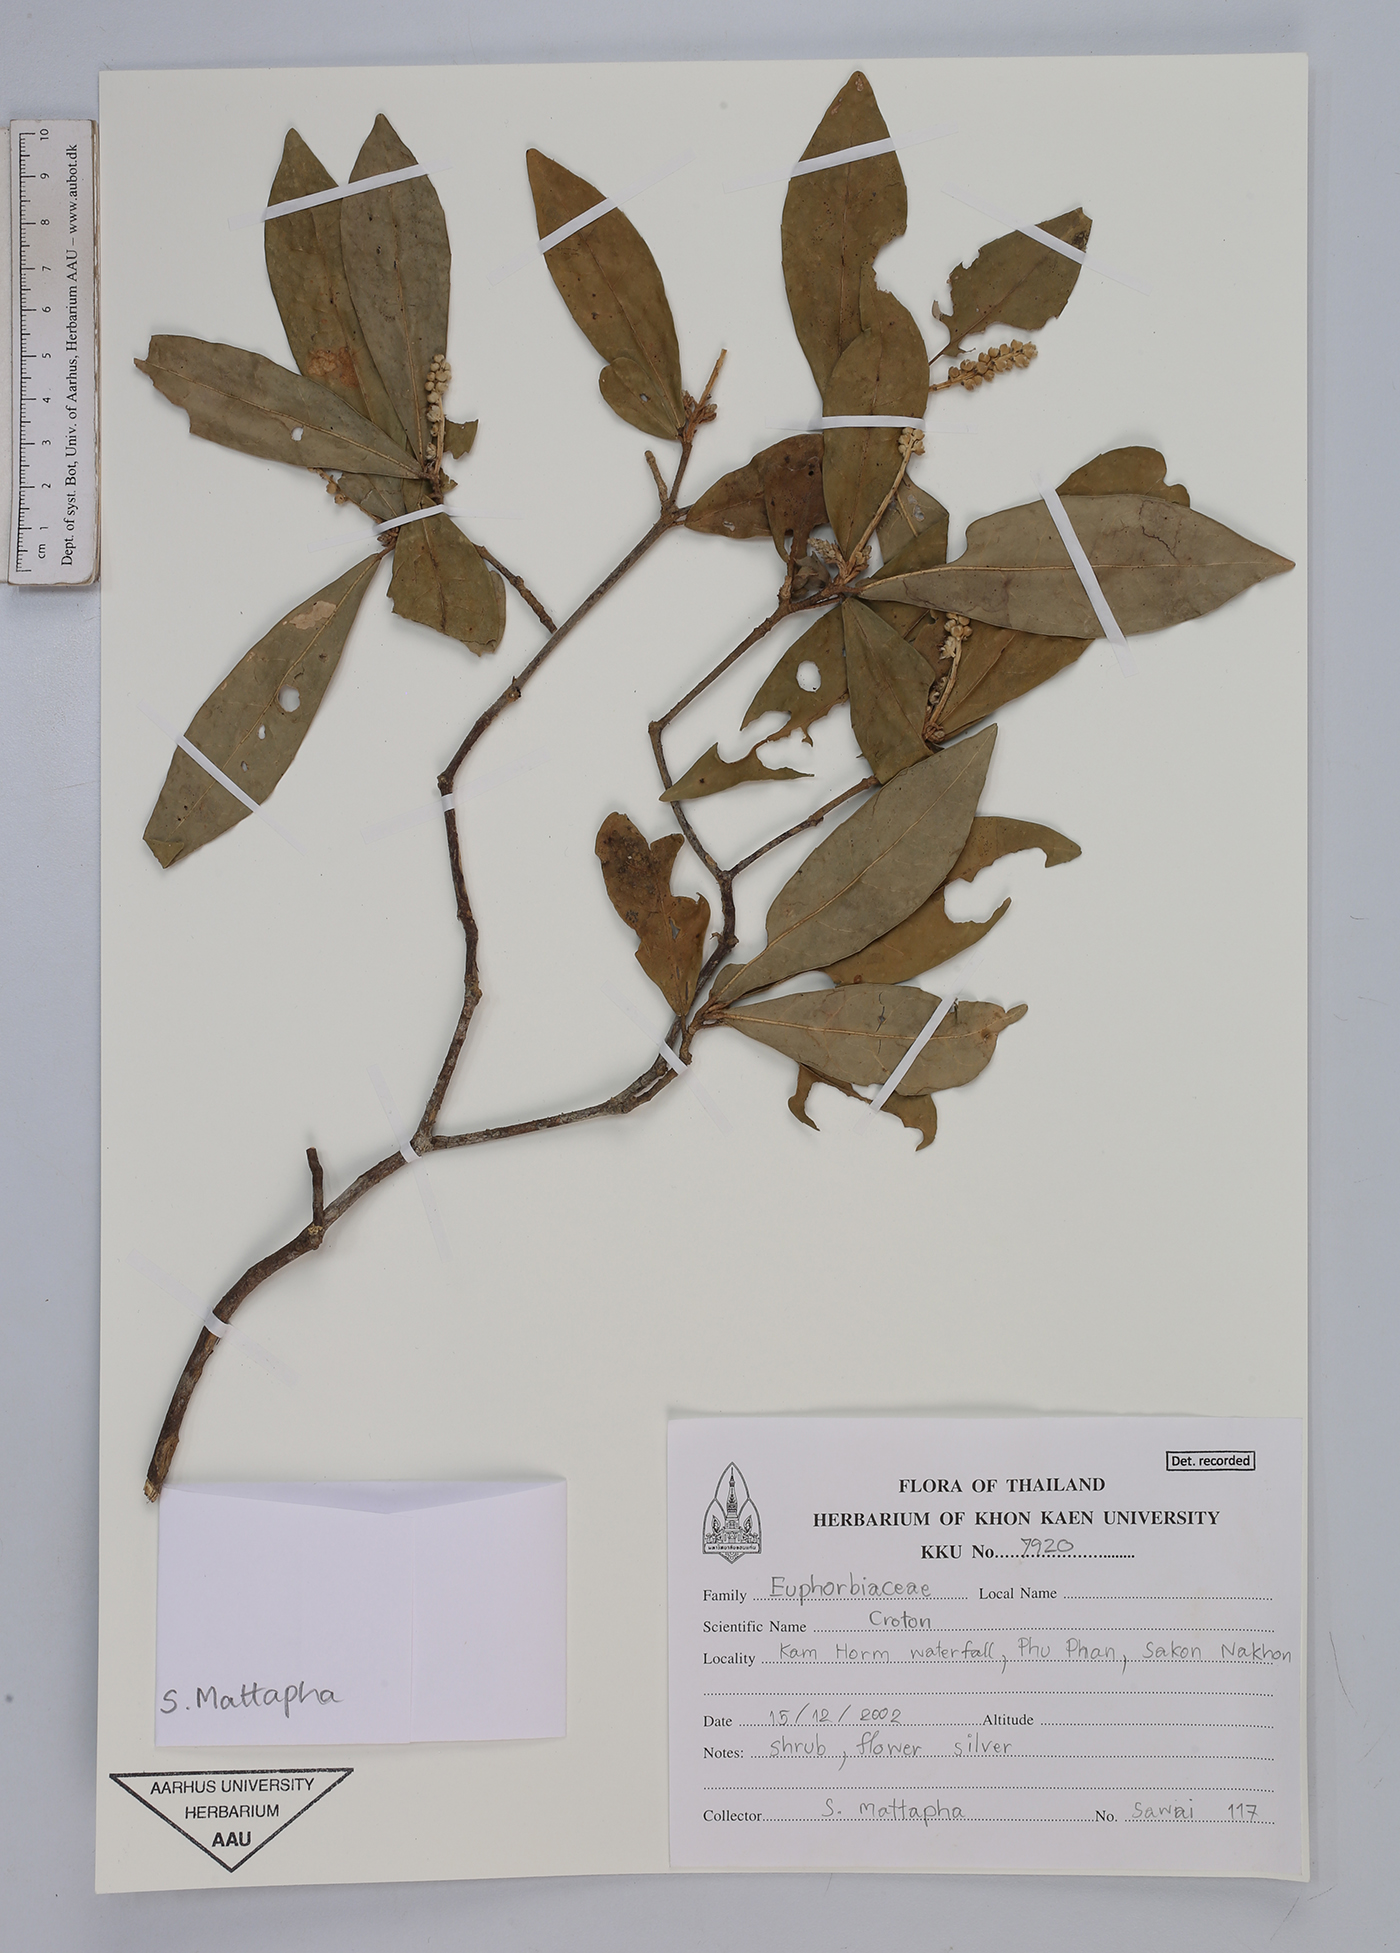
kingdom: Plantae
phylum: Tracheophyta
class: Magnoliopsida
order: Malpighiales
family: Euphorbiaceae
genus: Croton
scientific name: Croton
